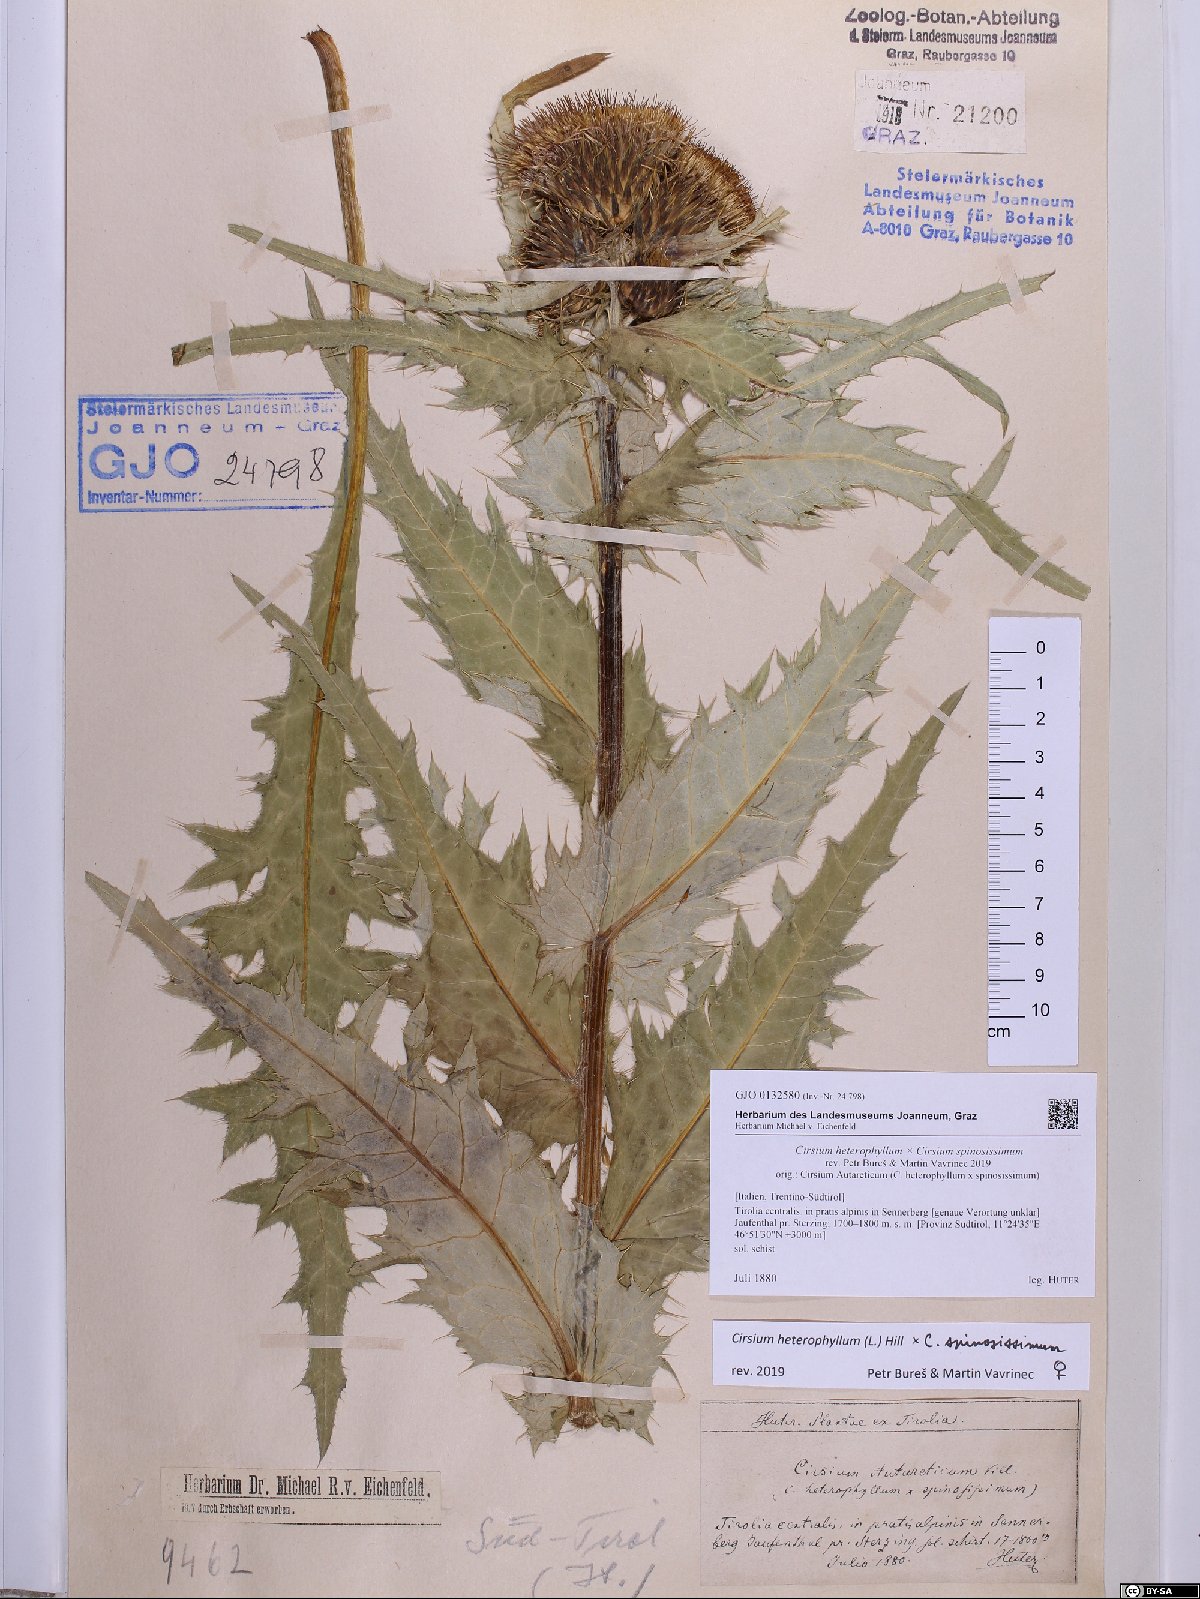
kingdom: Plantae
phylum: Tracheophyta
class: Magnoliopsida
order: Asterales
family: Asteraceae
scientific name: Asteraceae
